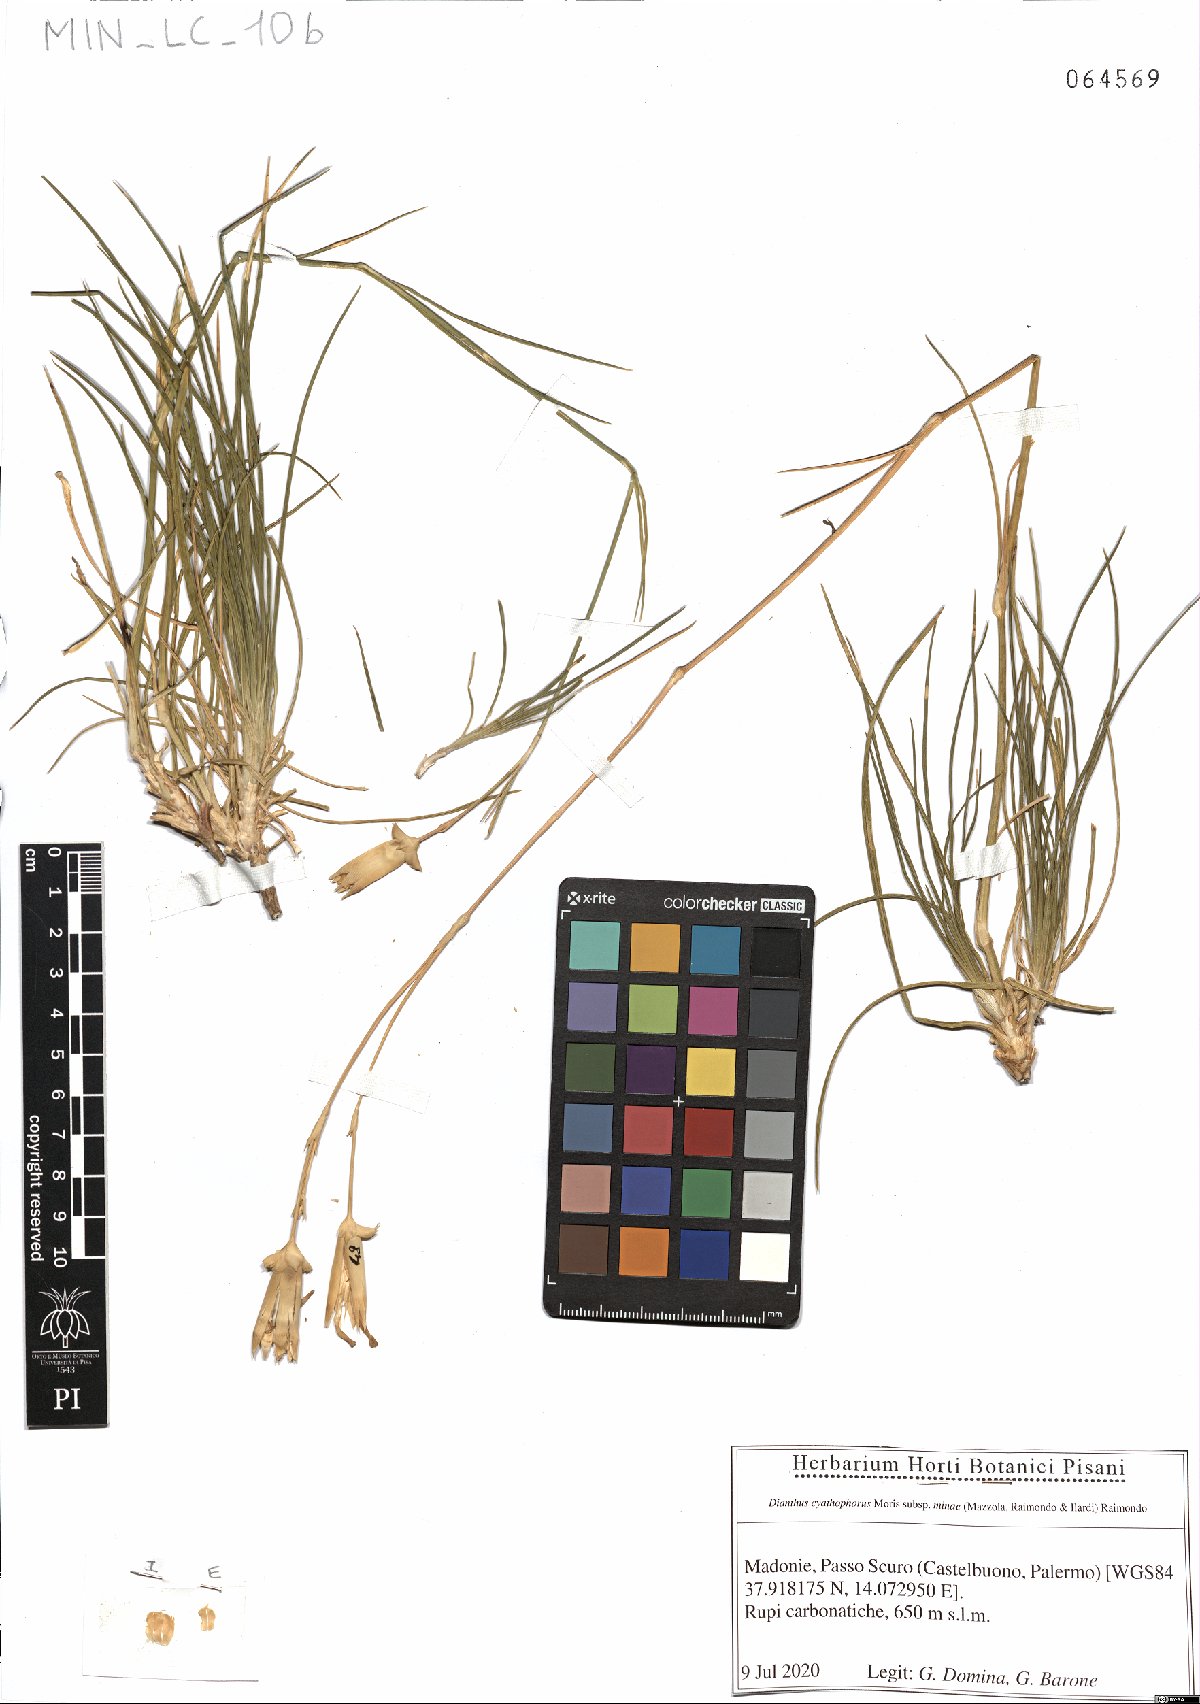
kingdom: Plantae
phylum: Tracheophyta
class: Magnoliopsida
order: Caryophyllales
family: Caryophyllaceae
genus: Dianthus
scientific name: Dianthus siculus
